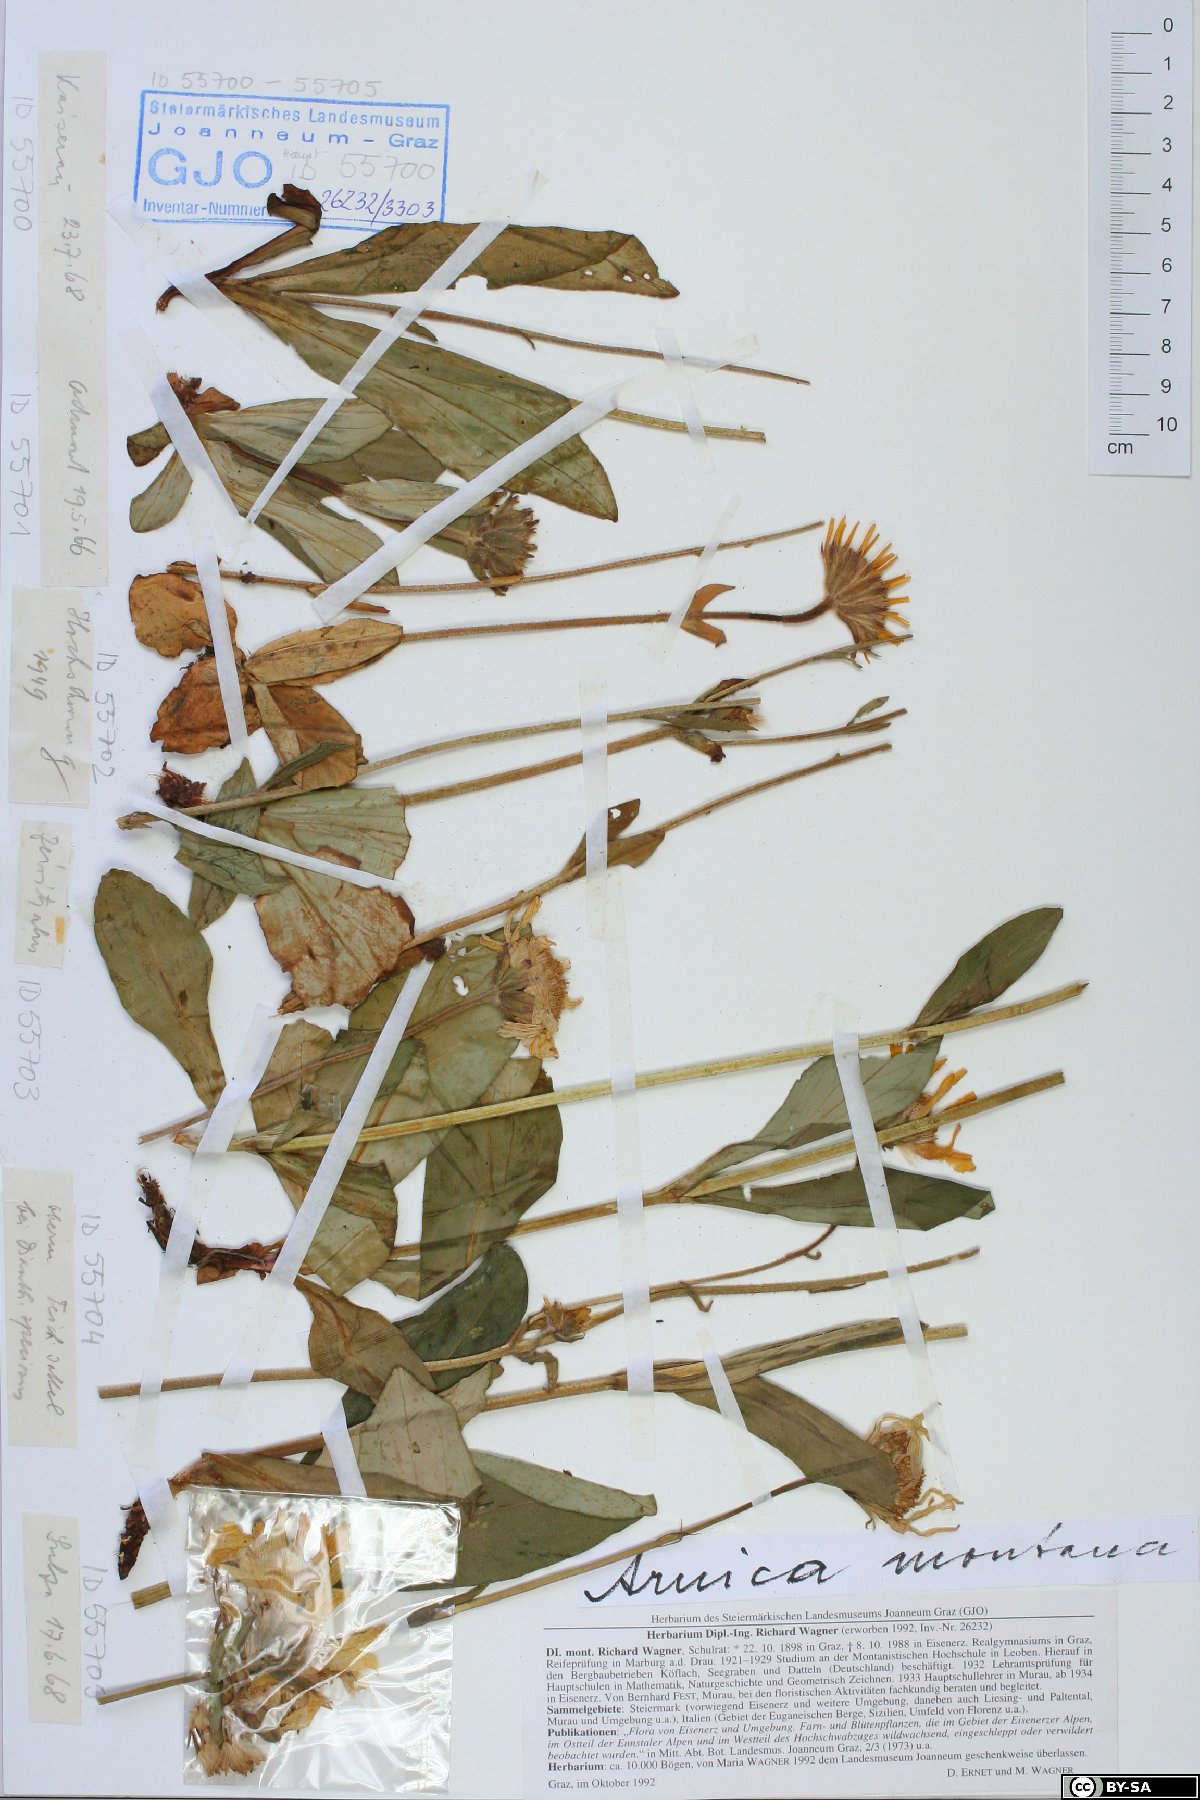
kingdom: Plantae
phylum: Tracheophyta
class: Magnoliopsida
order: Asterales
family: Asteraceae
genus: Arnica
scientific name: Arnica montana
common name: Leopard's bane
